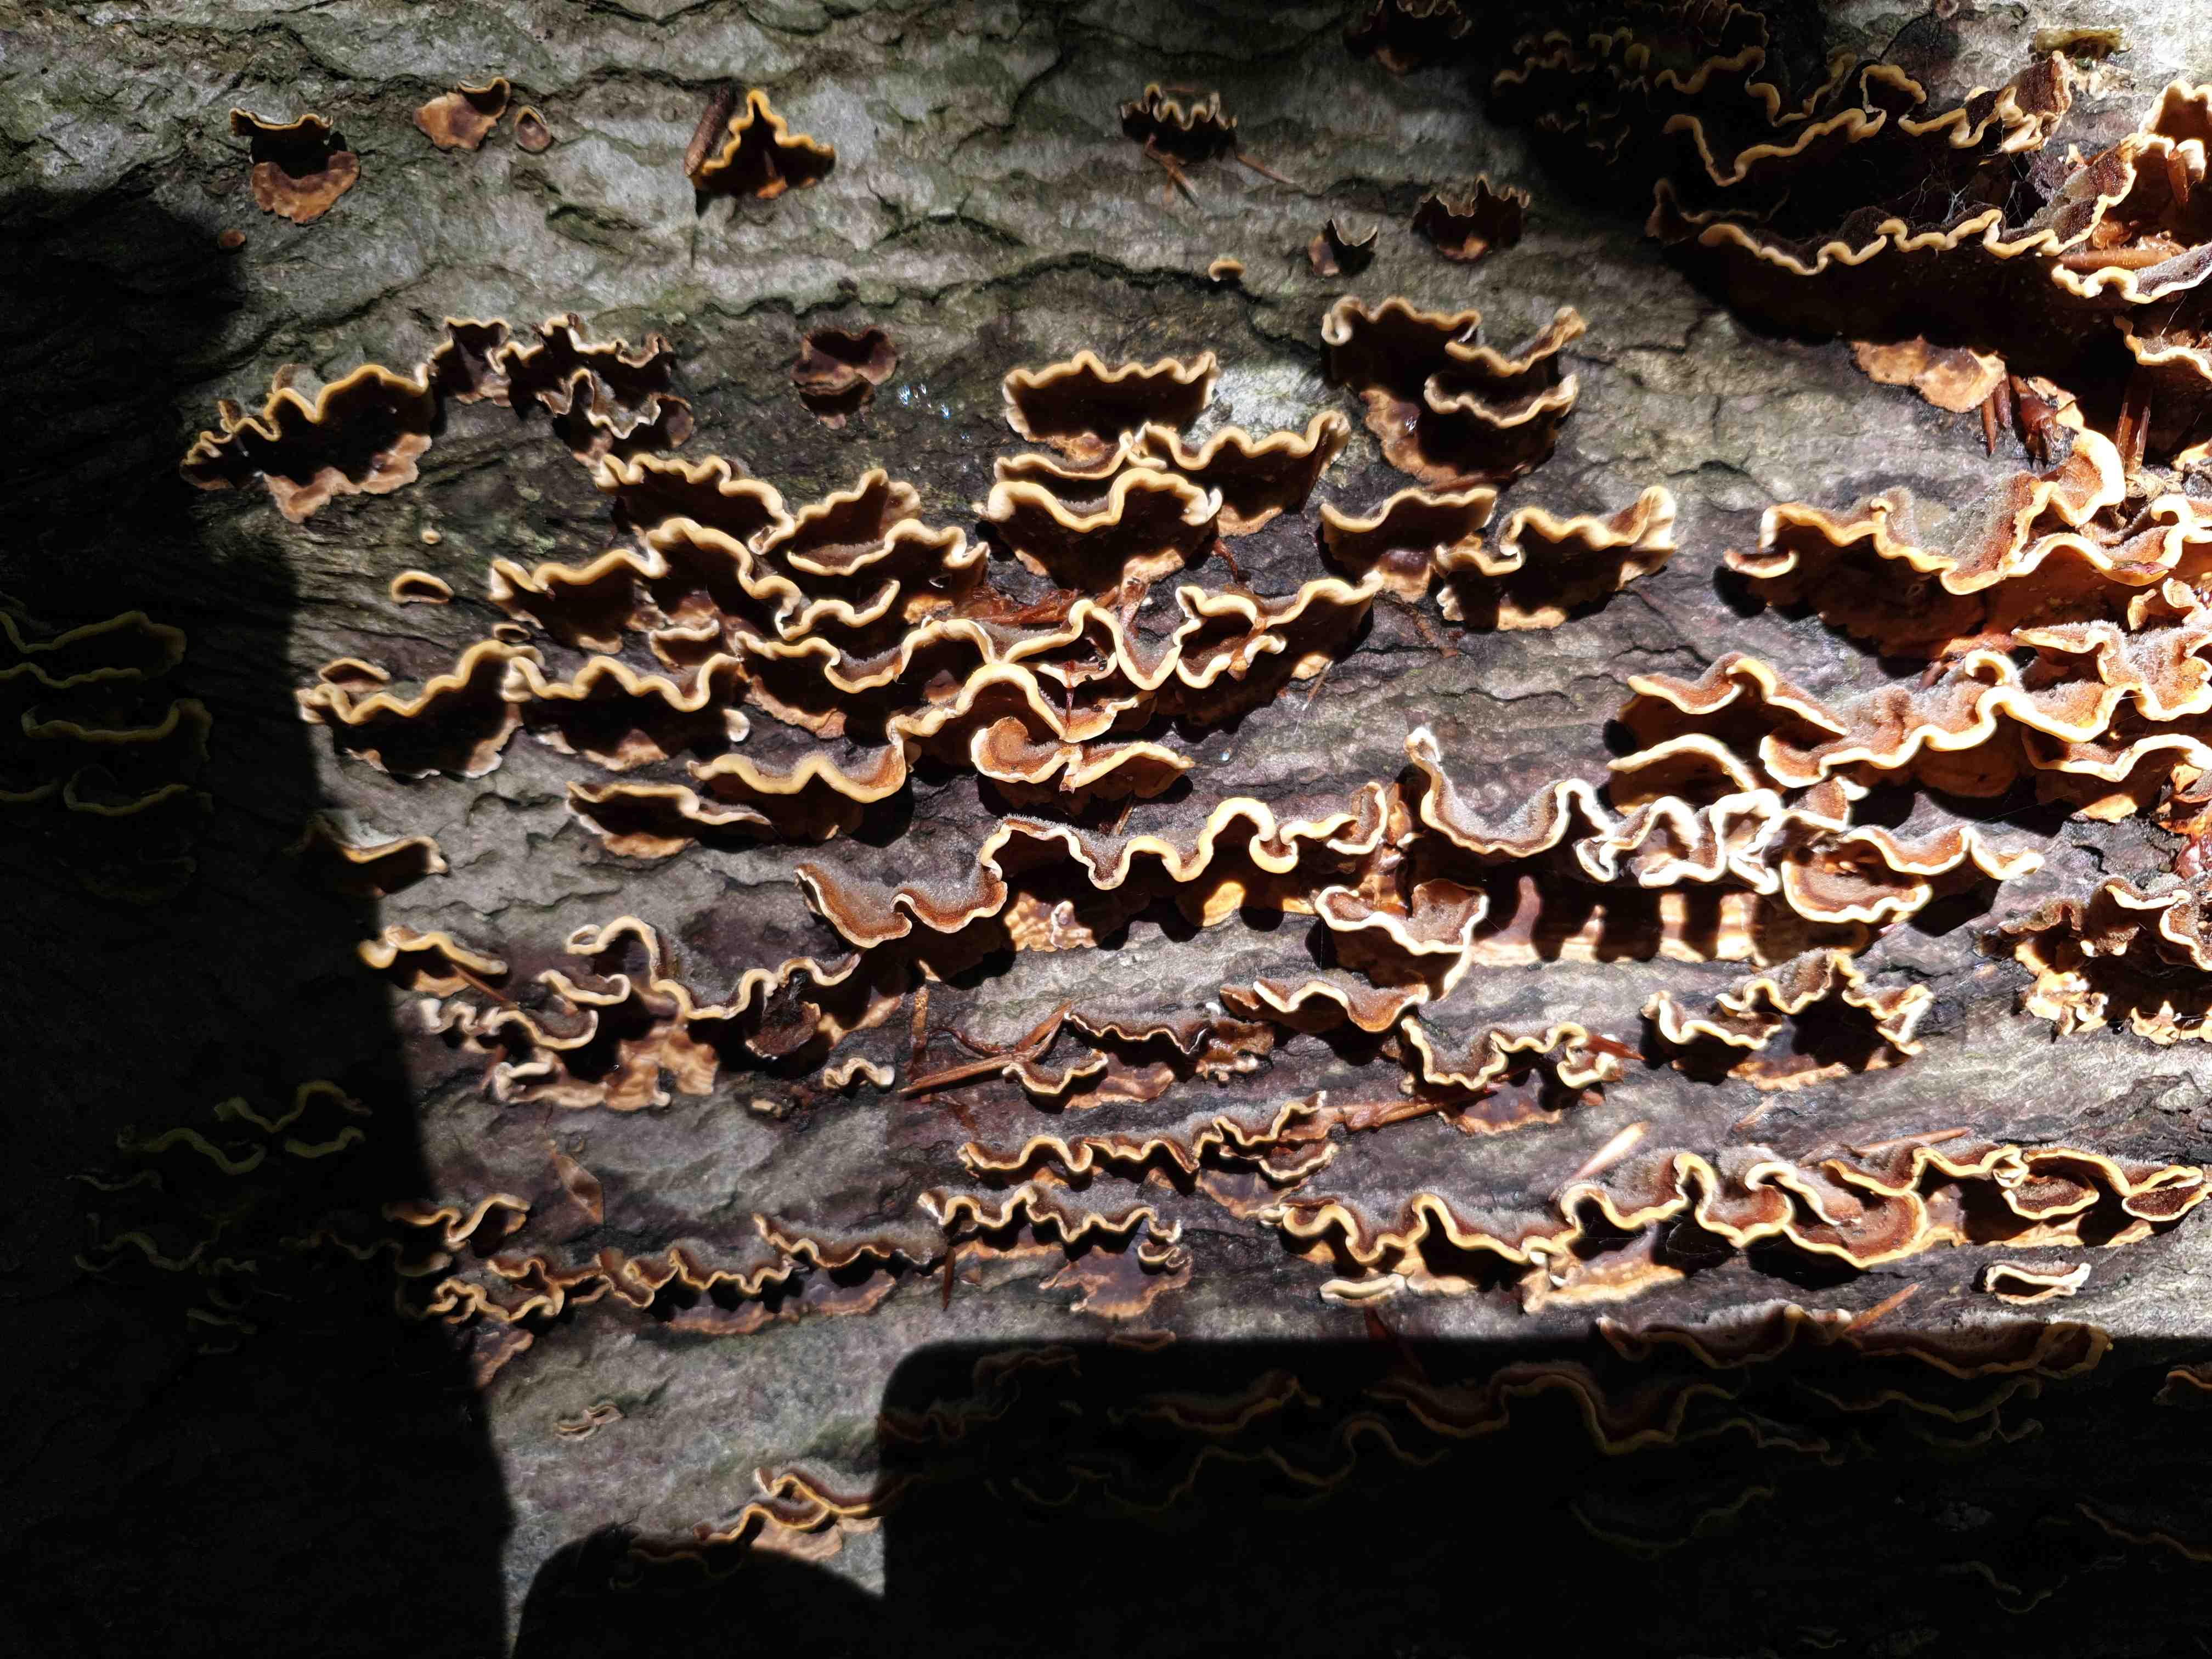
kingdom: Fungi
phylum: Basidiomycota
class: Agaricomycetes
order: Russulales
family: Stereaceae
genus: Stereum
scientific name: Stereum hirsutum
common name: håret lædersvamp
